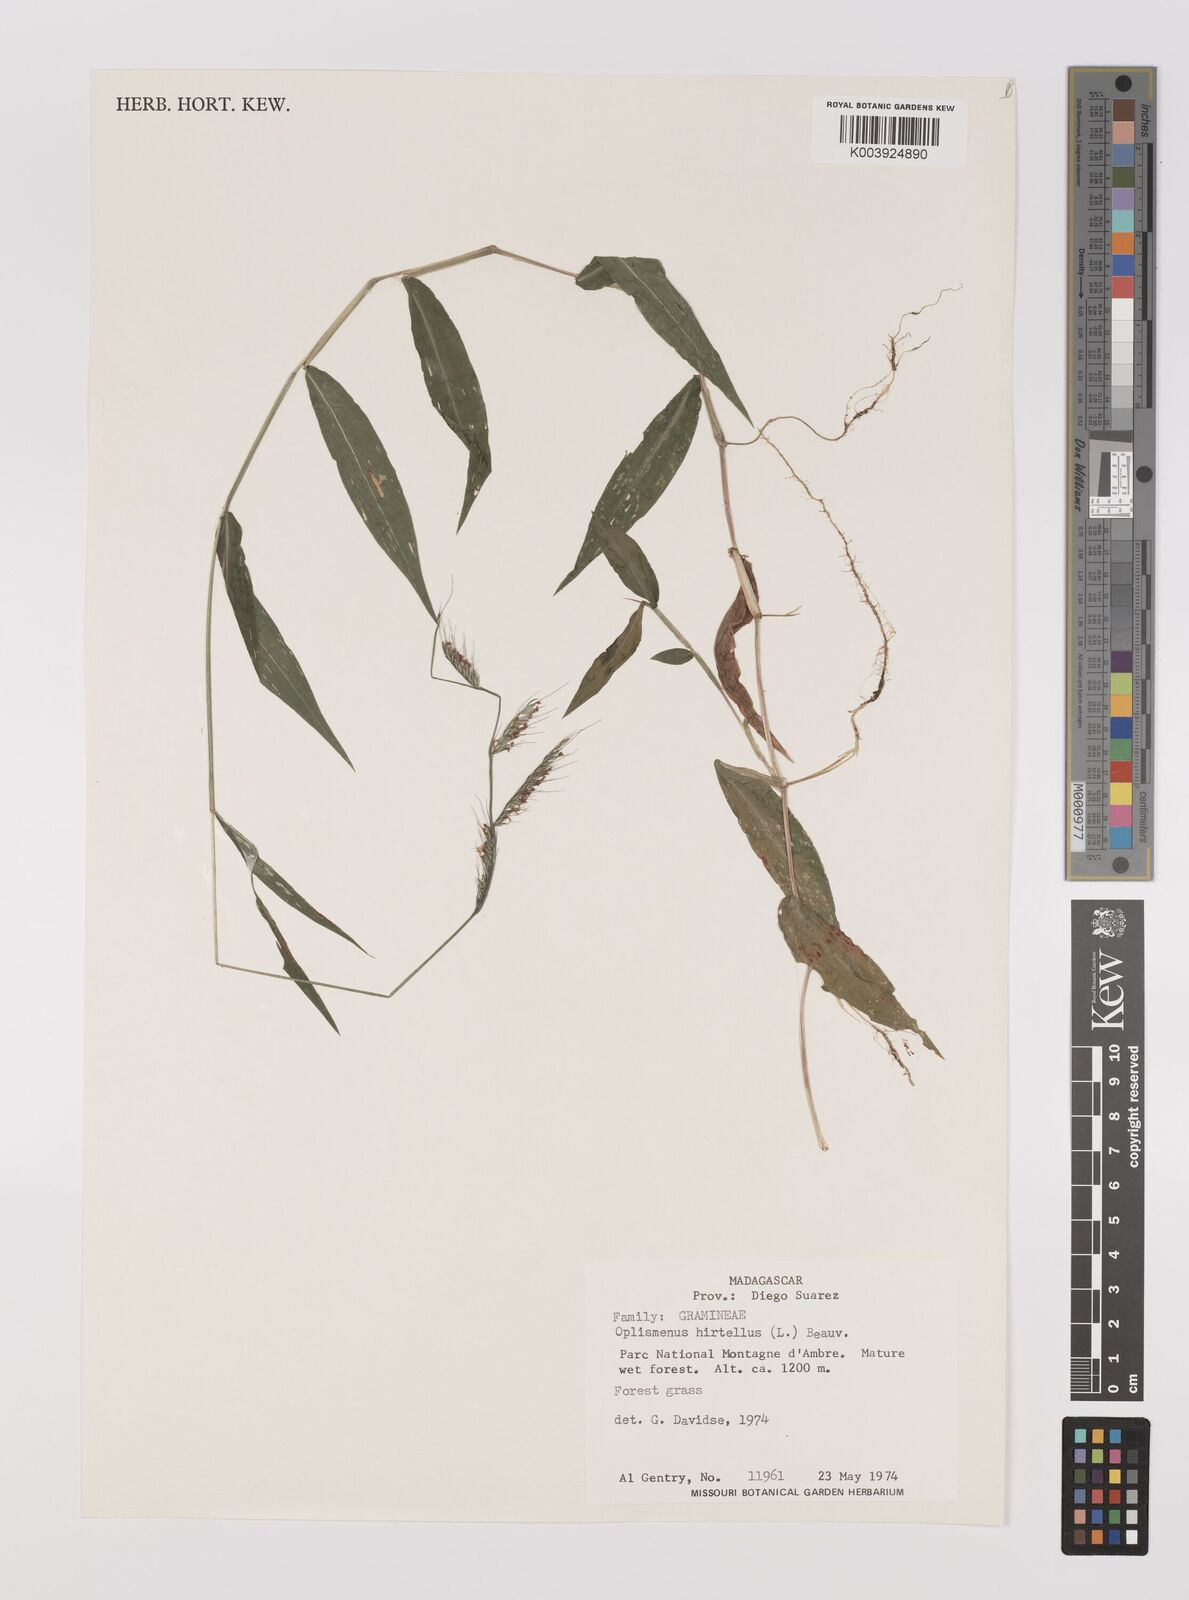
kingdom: Plantae
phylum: Tracheophyta
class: Liliopsida
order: Poales
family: Poaceae
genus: Oplismenus
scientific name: Oplismenus hirtellus
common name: Basketgrass
